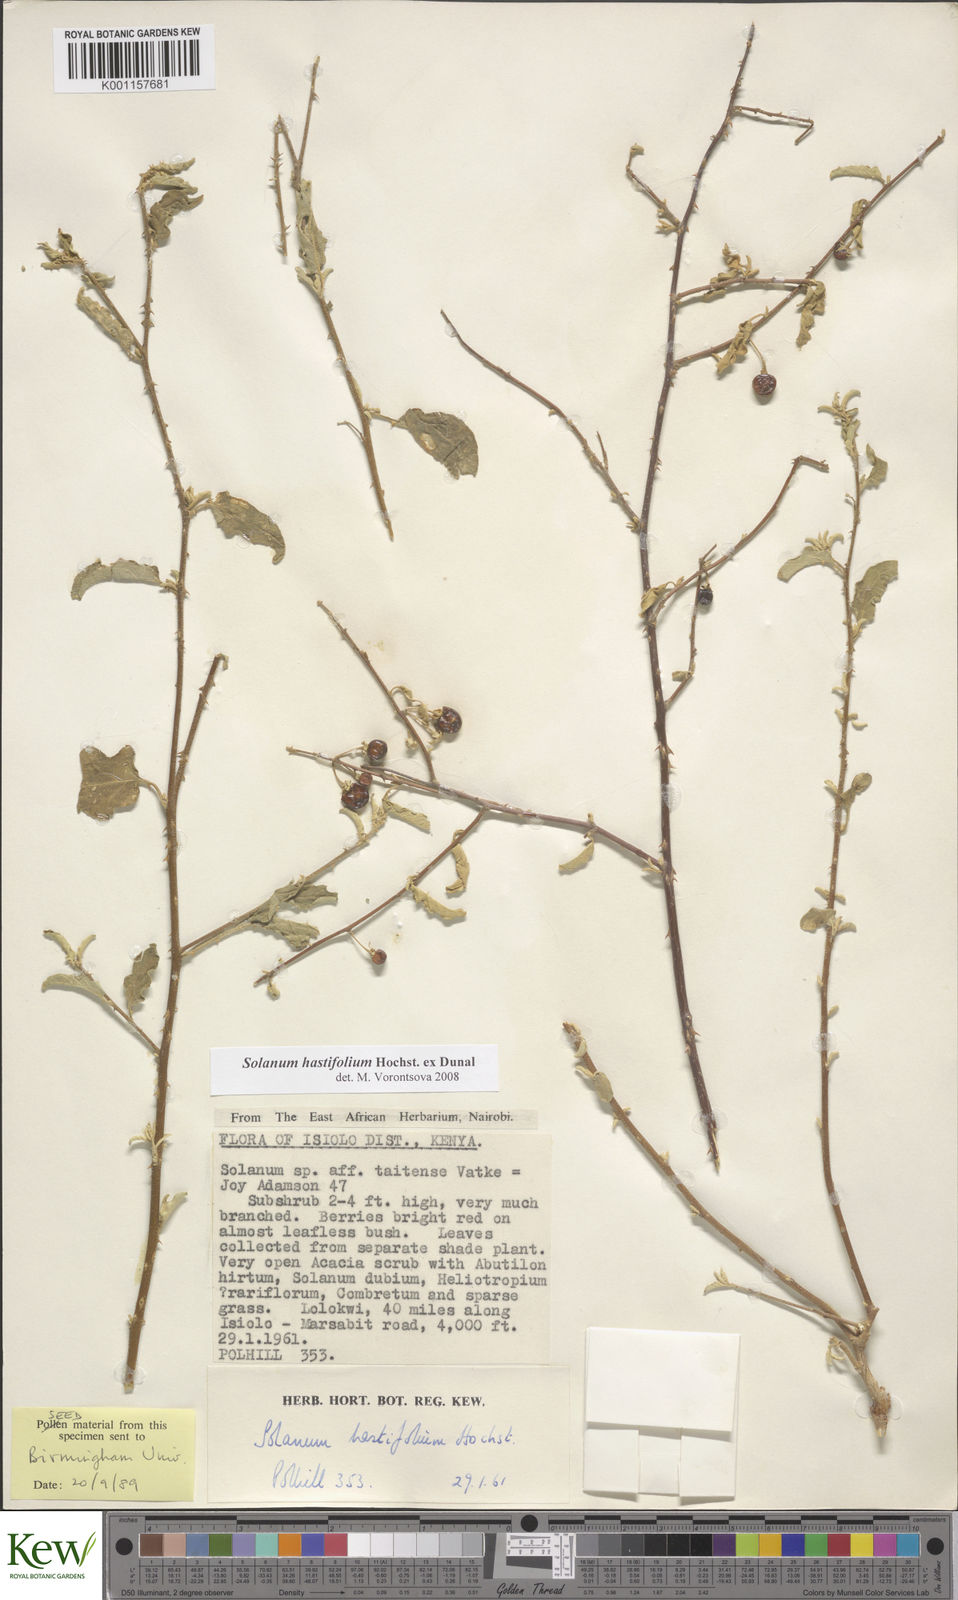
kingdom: Plantae
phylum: Tracheophyta
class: Magnoliopsida
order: Solanales
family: Solanaceae
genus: Solanum
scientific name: Solanum hastifolium
